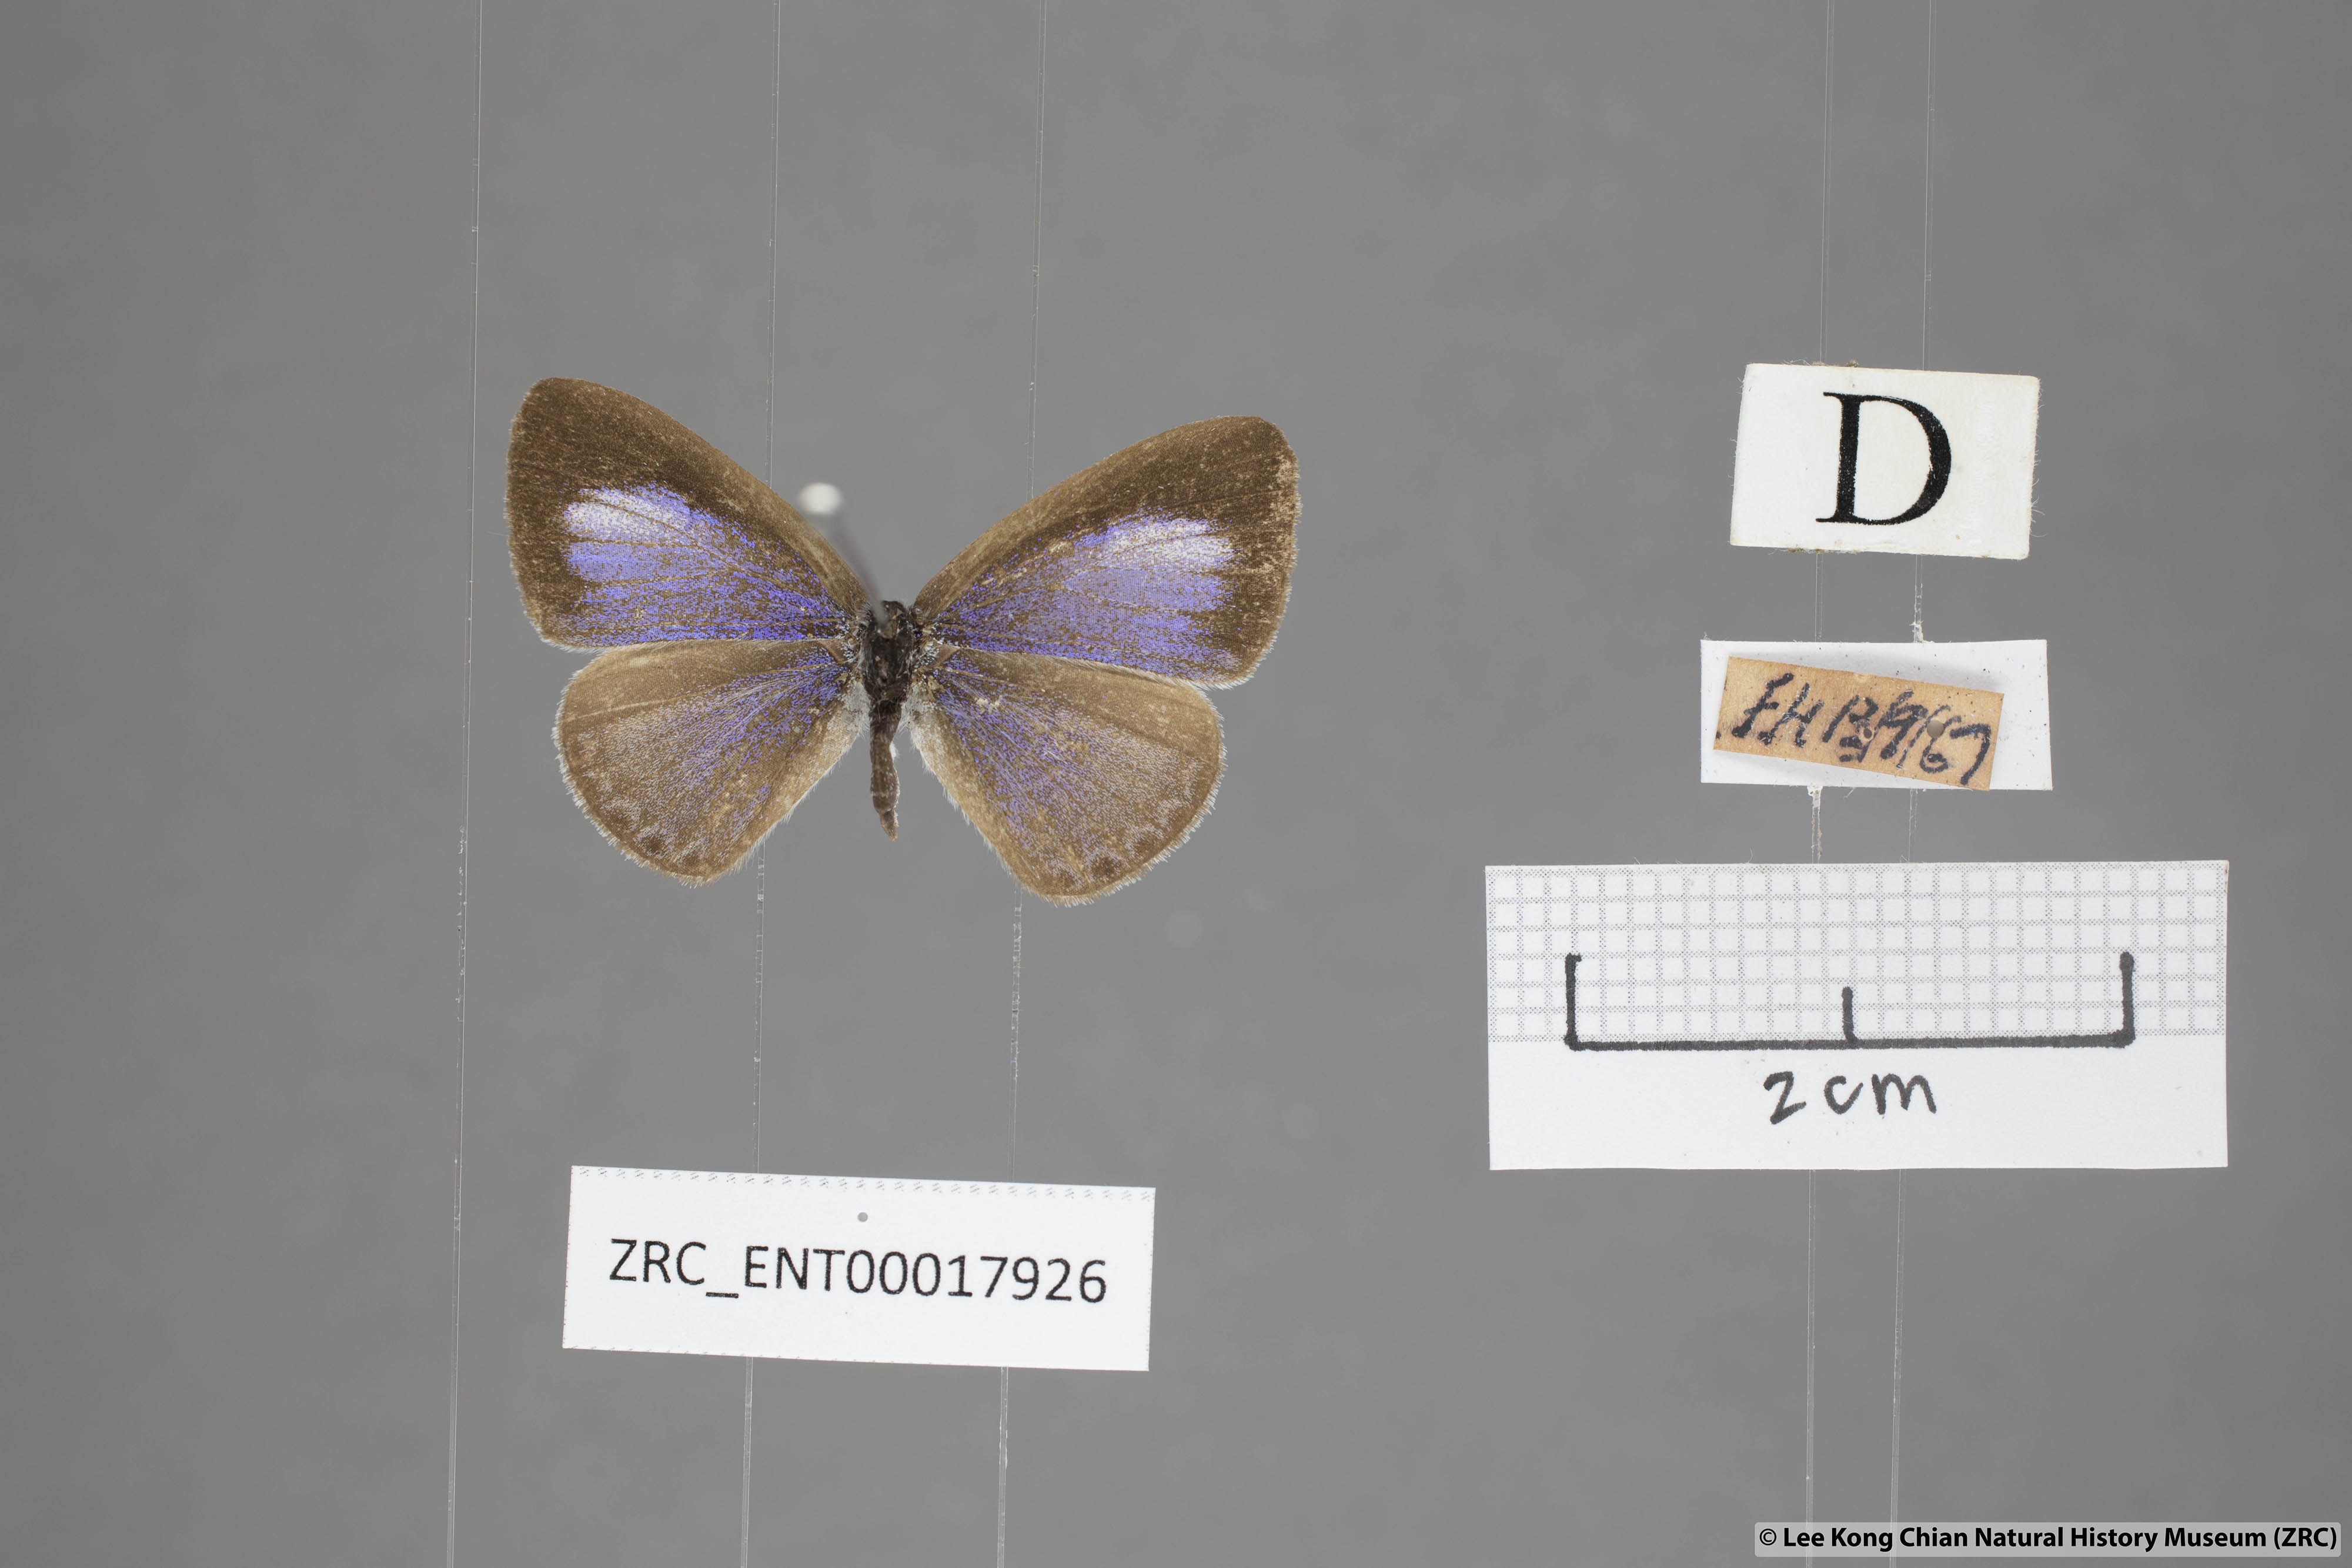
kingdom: Animalia
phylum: Arthropoda
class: Insecta
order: Lepidoptera
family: Lycaenidae
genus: Udara
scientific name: Udara
